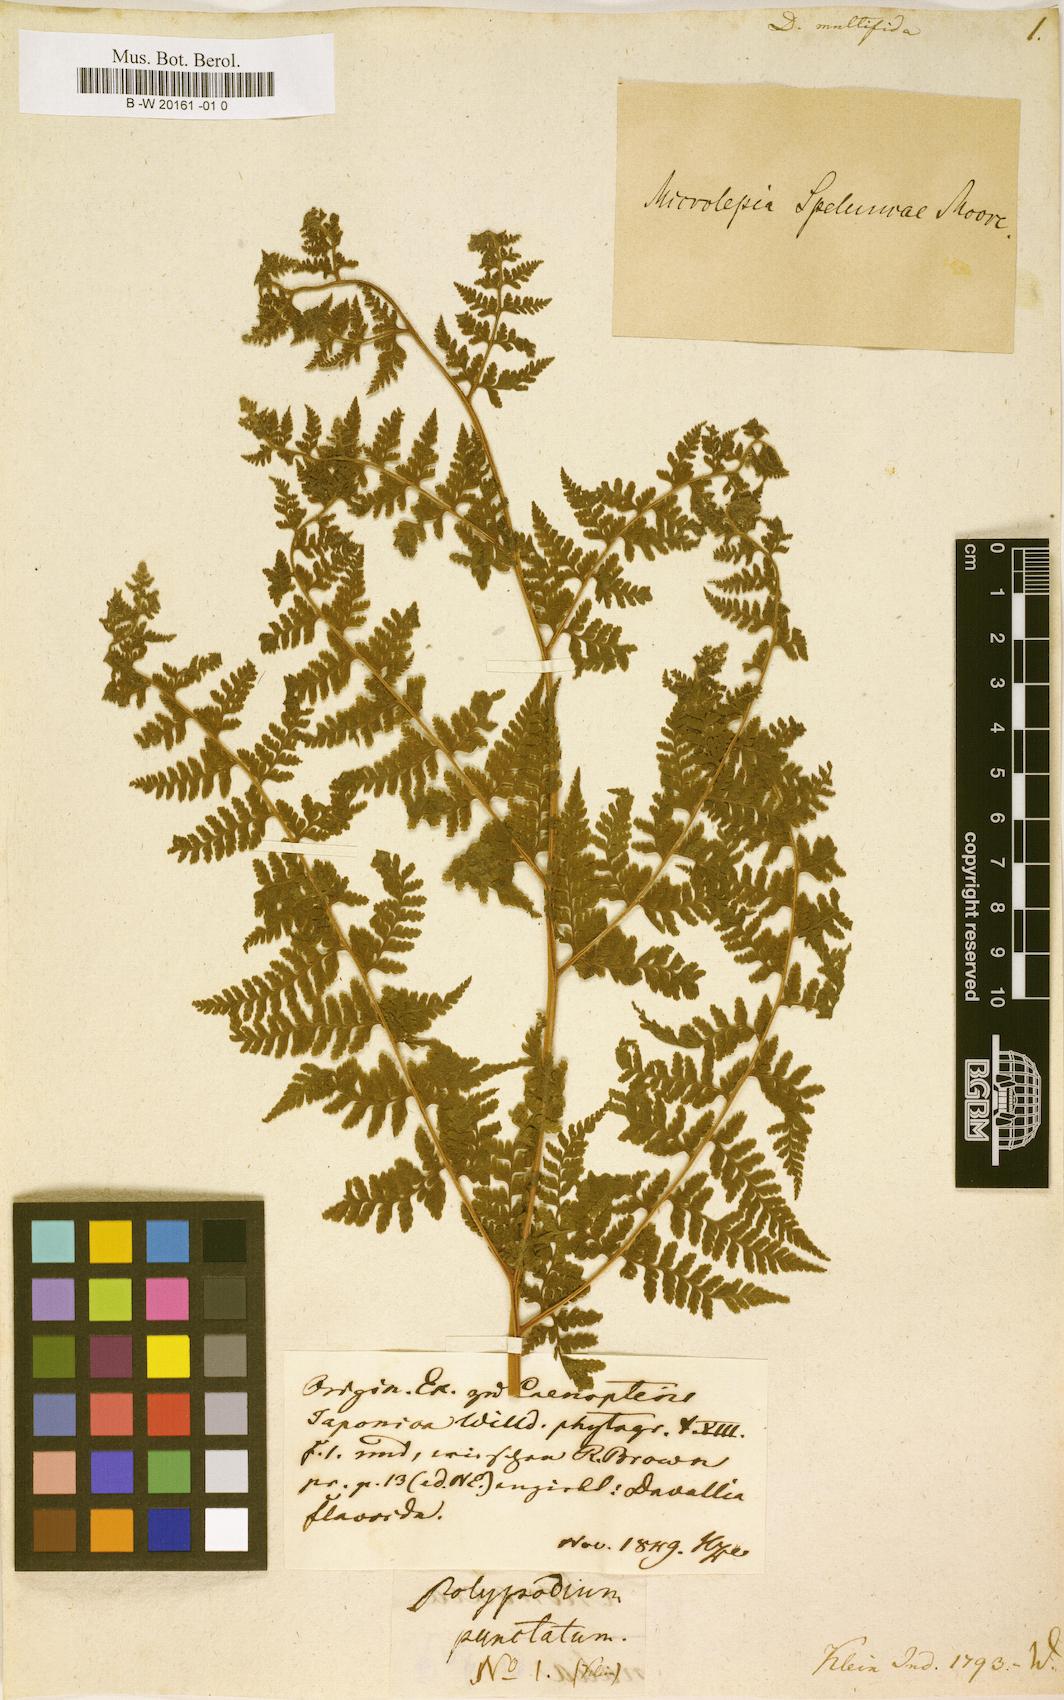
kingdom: Plantae
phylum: Tracheophyta
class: Polypodiopsida
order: Polypodiales
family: Dennstaedtiaceae
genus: Microlepia
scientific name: Microlepia speluncae
